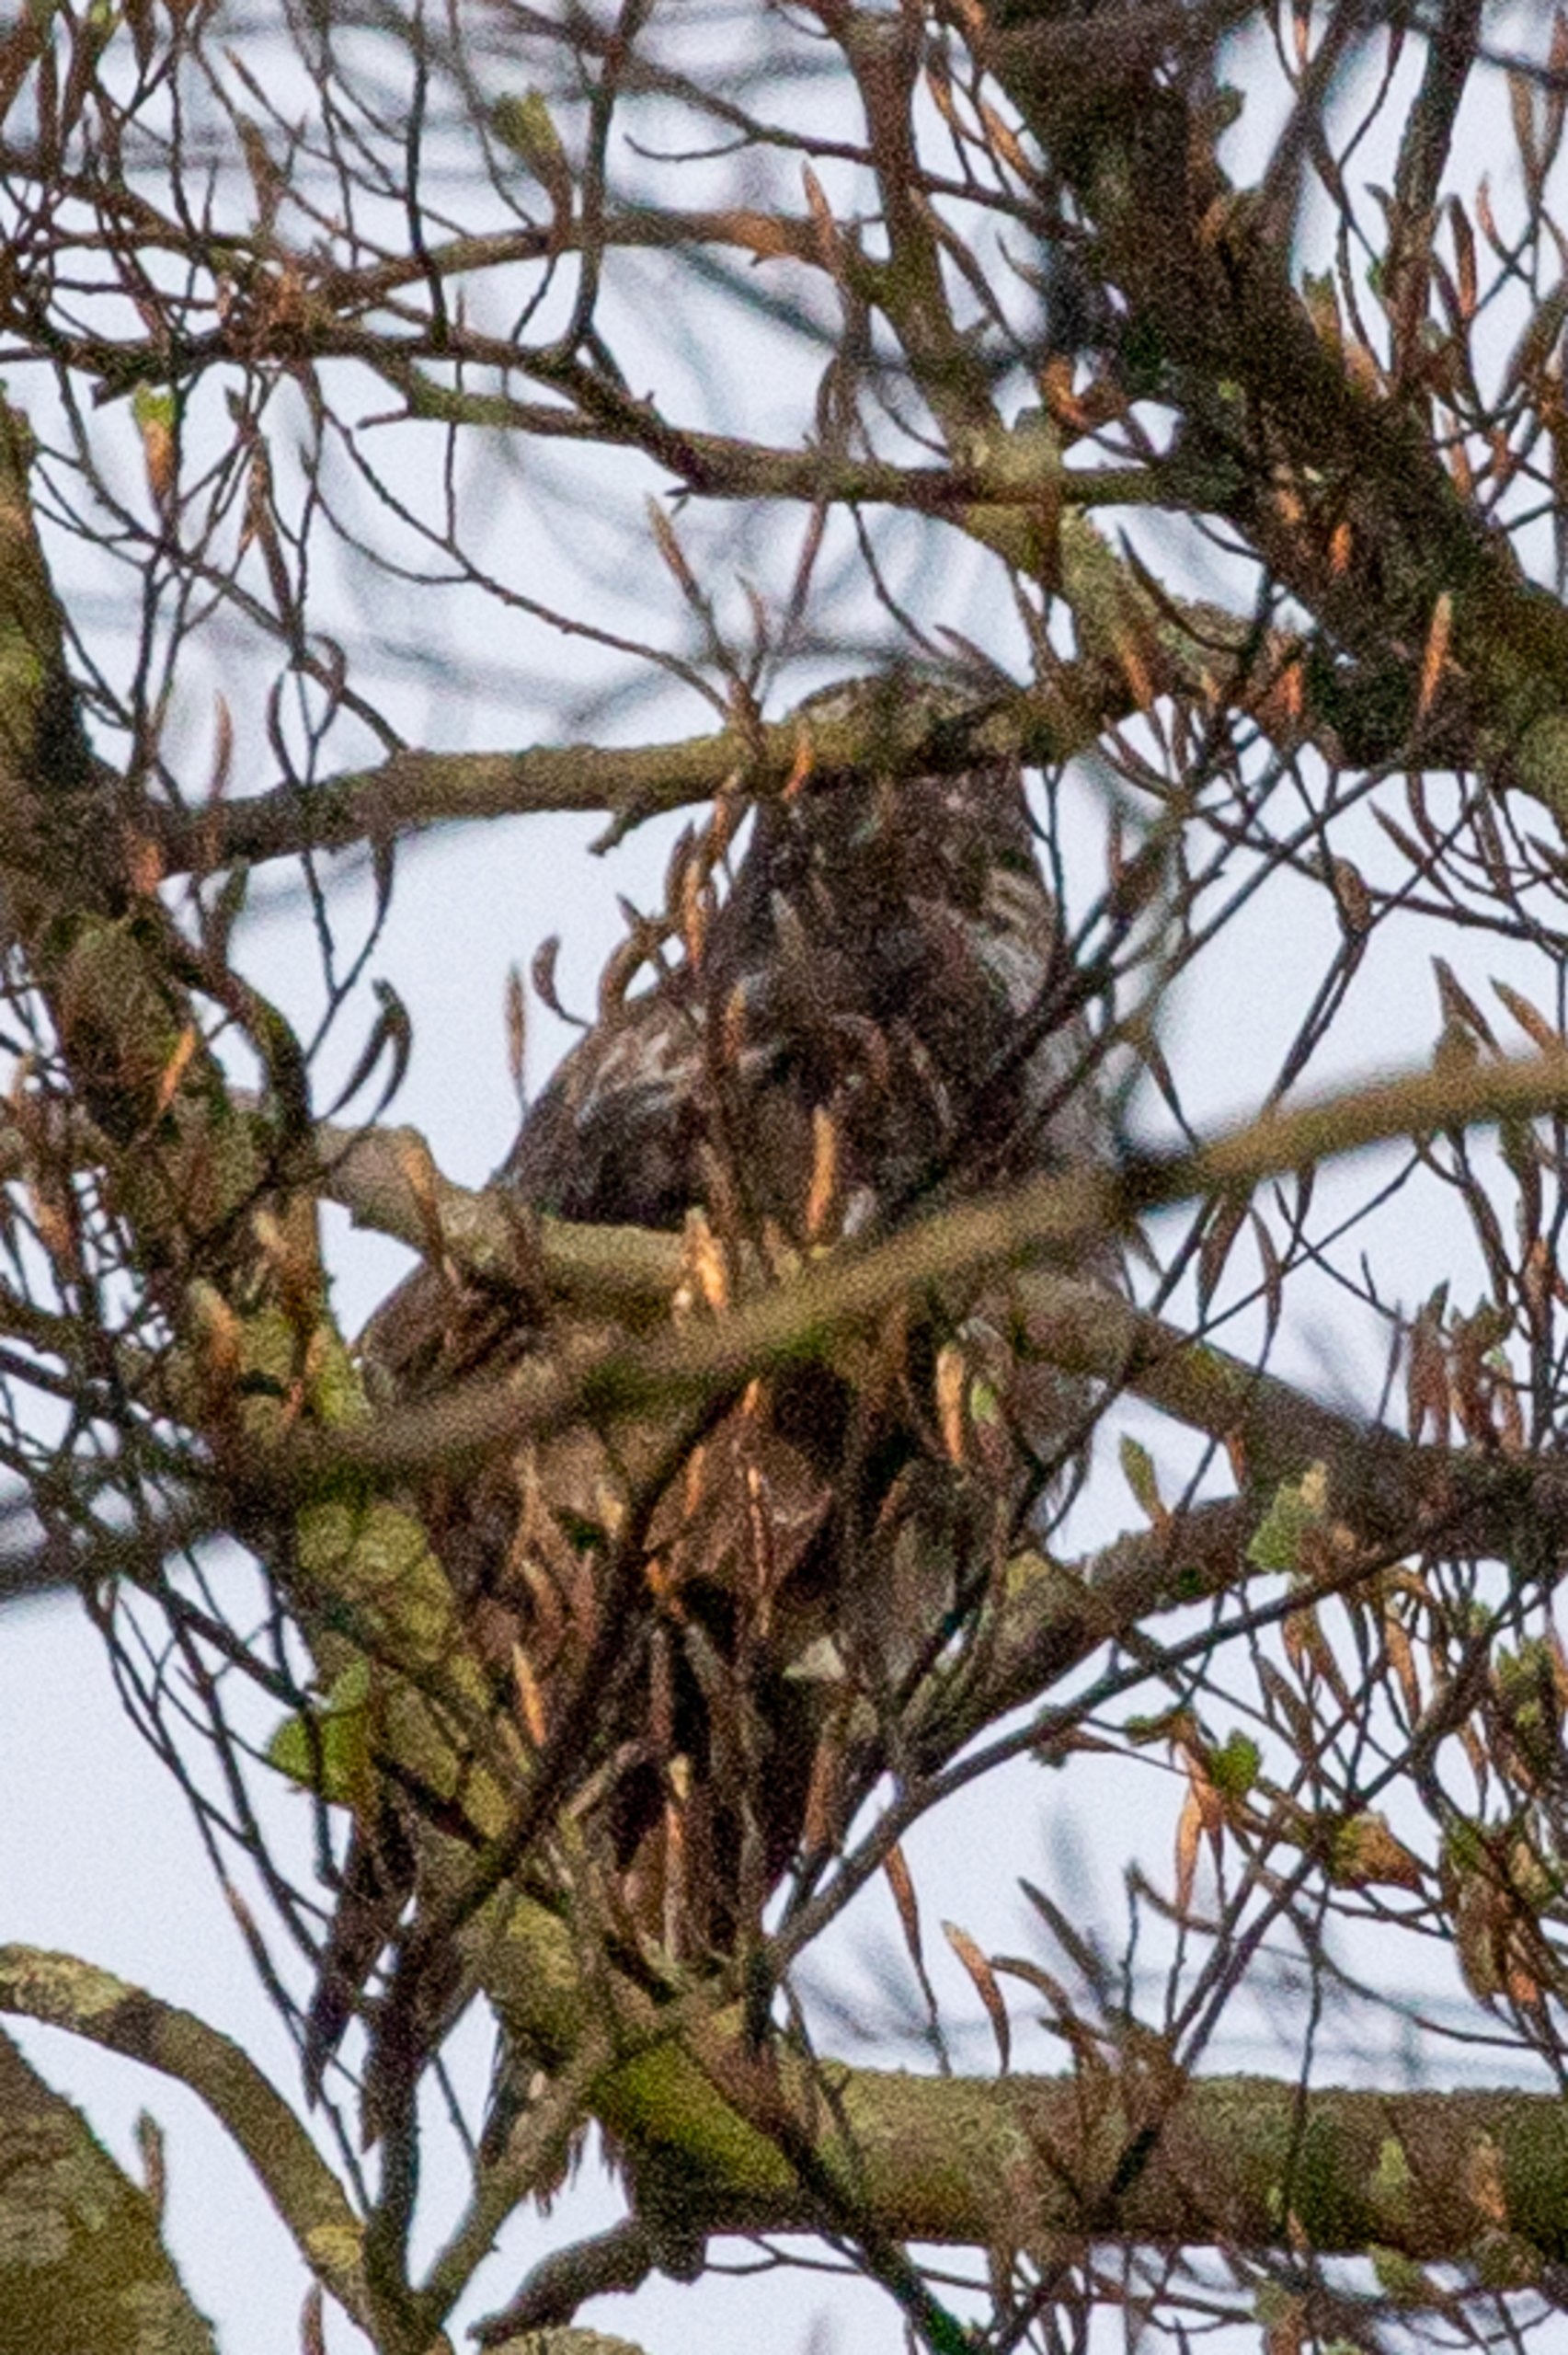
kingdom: Animalia
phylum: Chordata
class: Aves
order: Accipitriformes
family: Accipitridae
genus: Buteo
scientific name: Buteo buteo
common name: Musvåge
